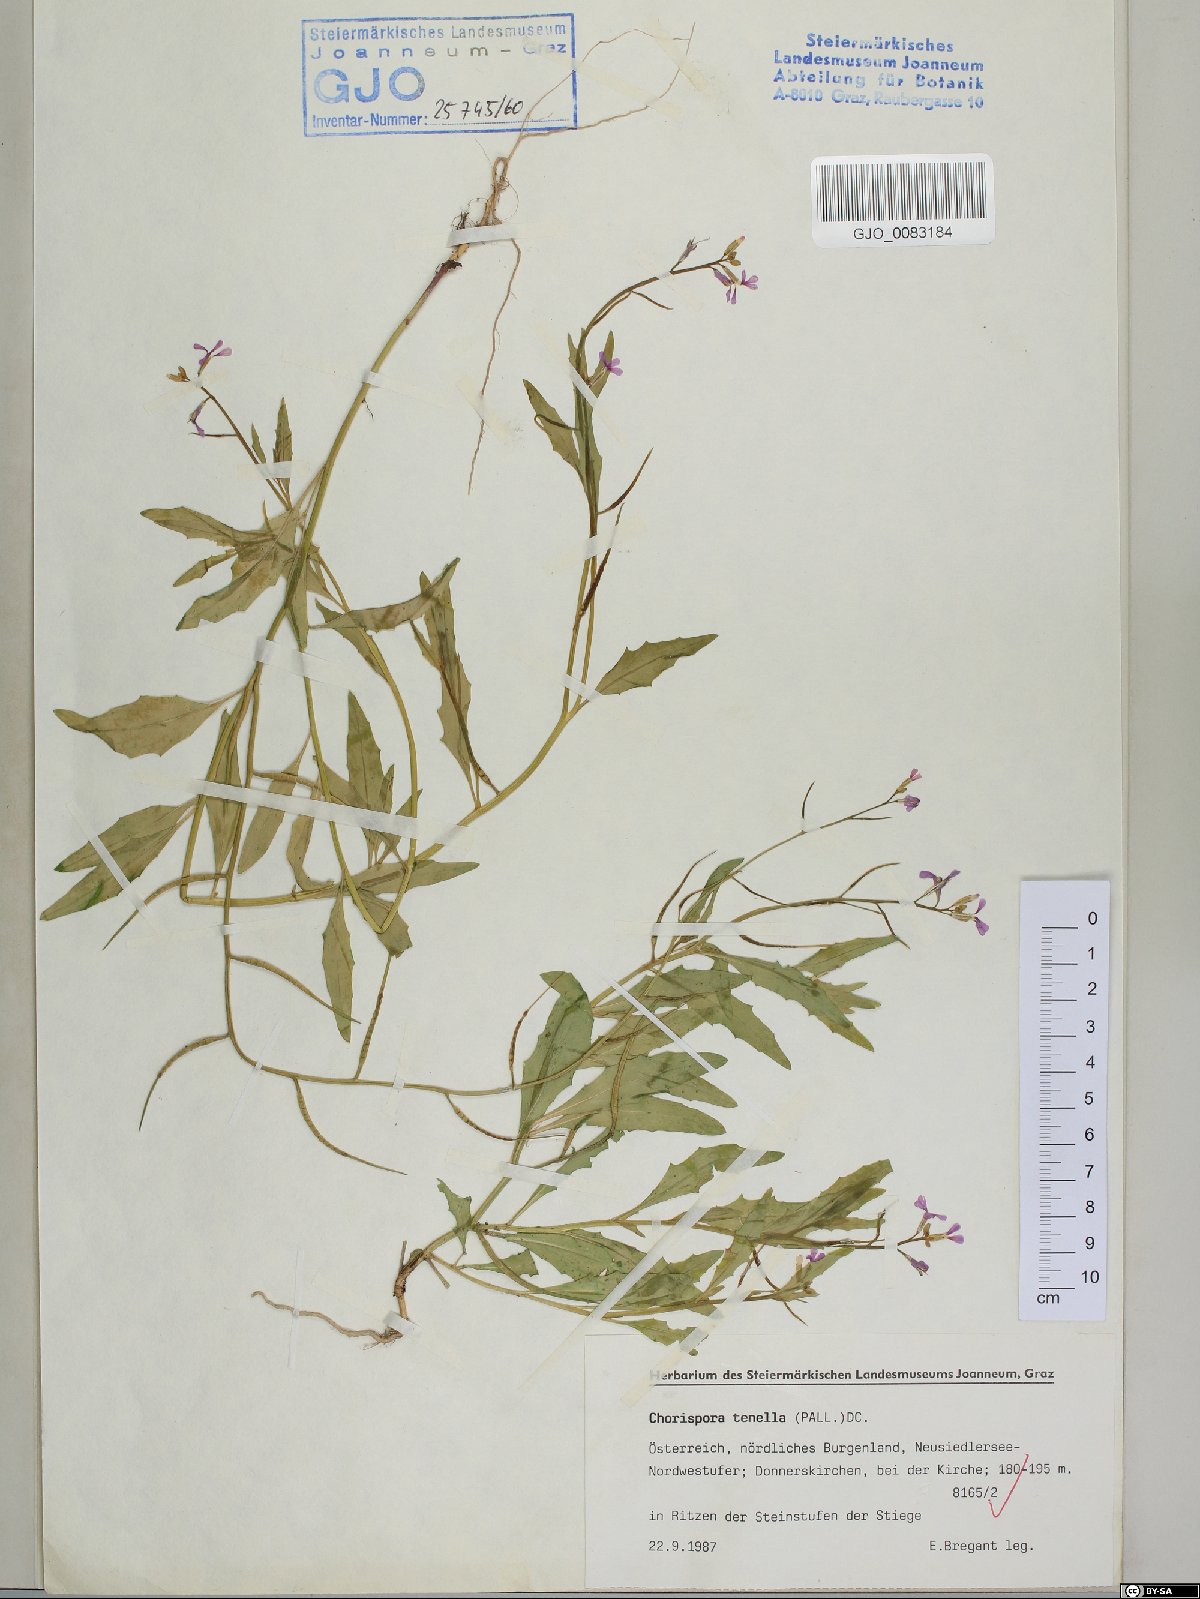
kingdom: Plantae
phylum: Tracheophyta
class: Magnoliopsida
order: Brassicales
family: Brassicaceae
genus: Chorispora
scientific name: Chorispora tenella
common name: Crossflower
